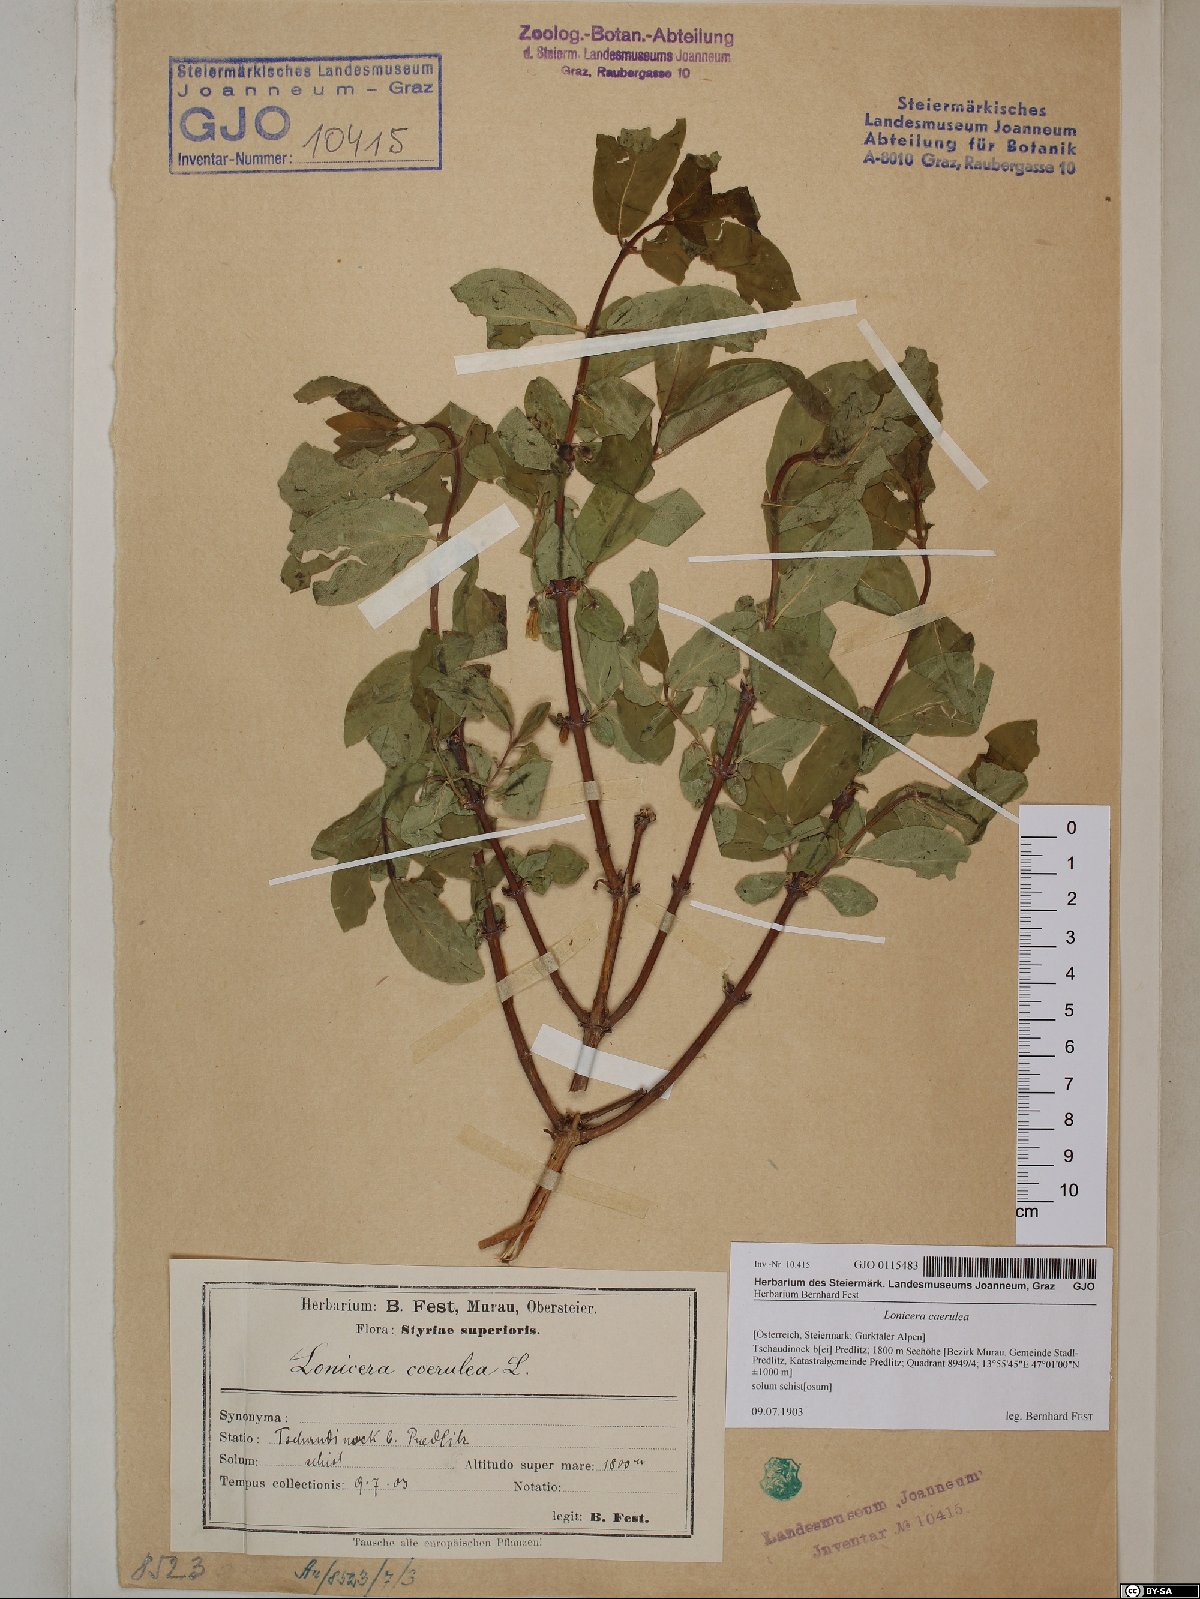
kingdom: Plantae
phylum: Tracheophyta
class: Magnoliopsida
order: Dipsacales
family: Caprifoliaceae
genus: Lonicera
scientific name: Lonicera caerulea
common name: Blue honeysuckle
